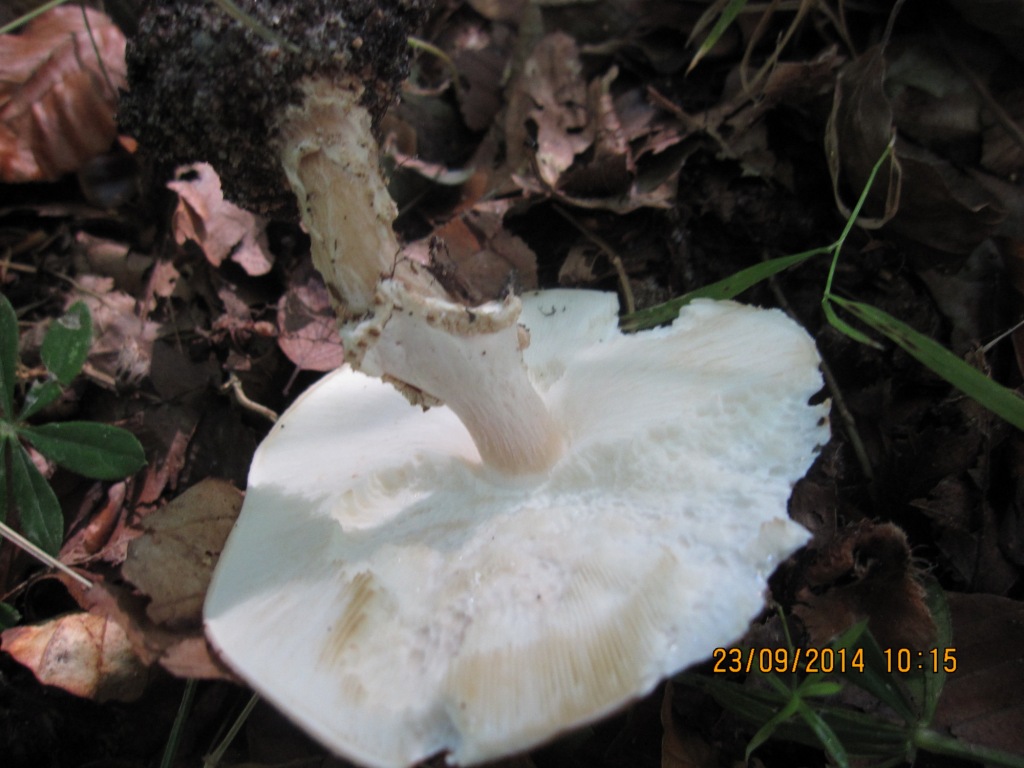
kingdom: Fungi
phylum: Basidiomycota
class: Agaricomycetes
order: Agaricales
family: Agaricaceae
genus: Echinoderma
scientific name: Echinoderma asperum
